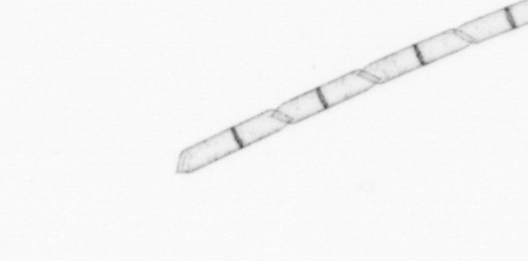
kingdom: Chromista
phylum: Ochrophyta
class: Bacillariophyceae
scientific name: Bacillariophyceae
